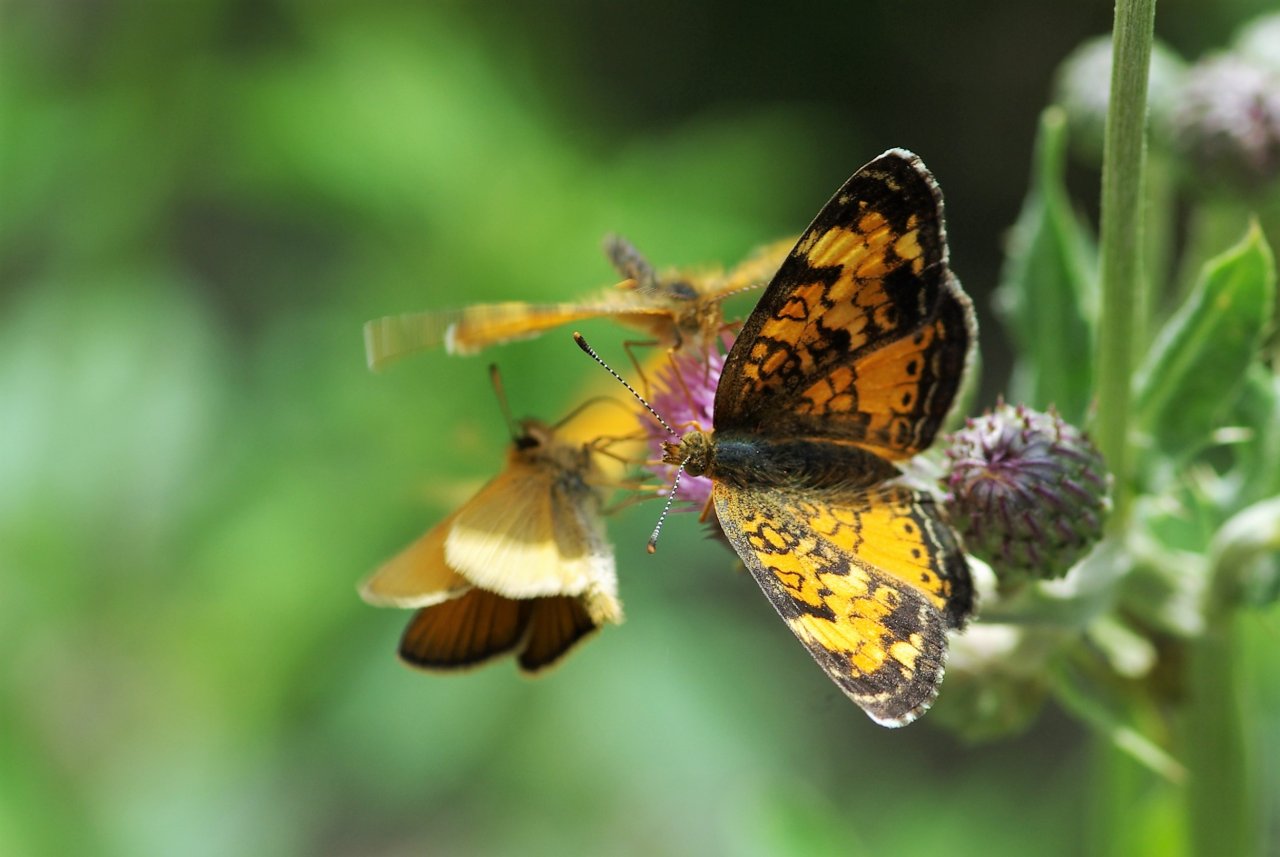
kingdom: Animalia
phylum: Arthropoda
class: Insecta
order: Lepidoptera
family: Nymphalidae
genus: Phyciodes
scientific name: Phyciodes tharos
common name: Northern Crescent
